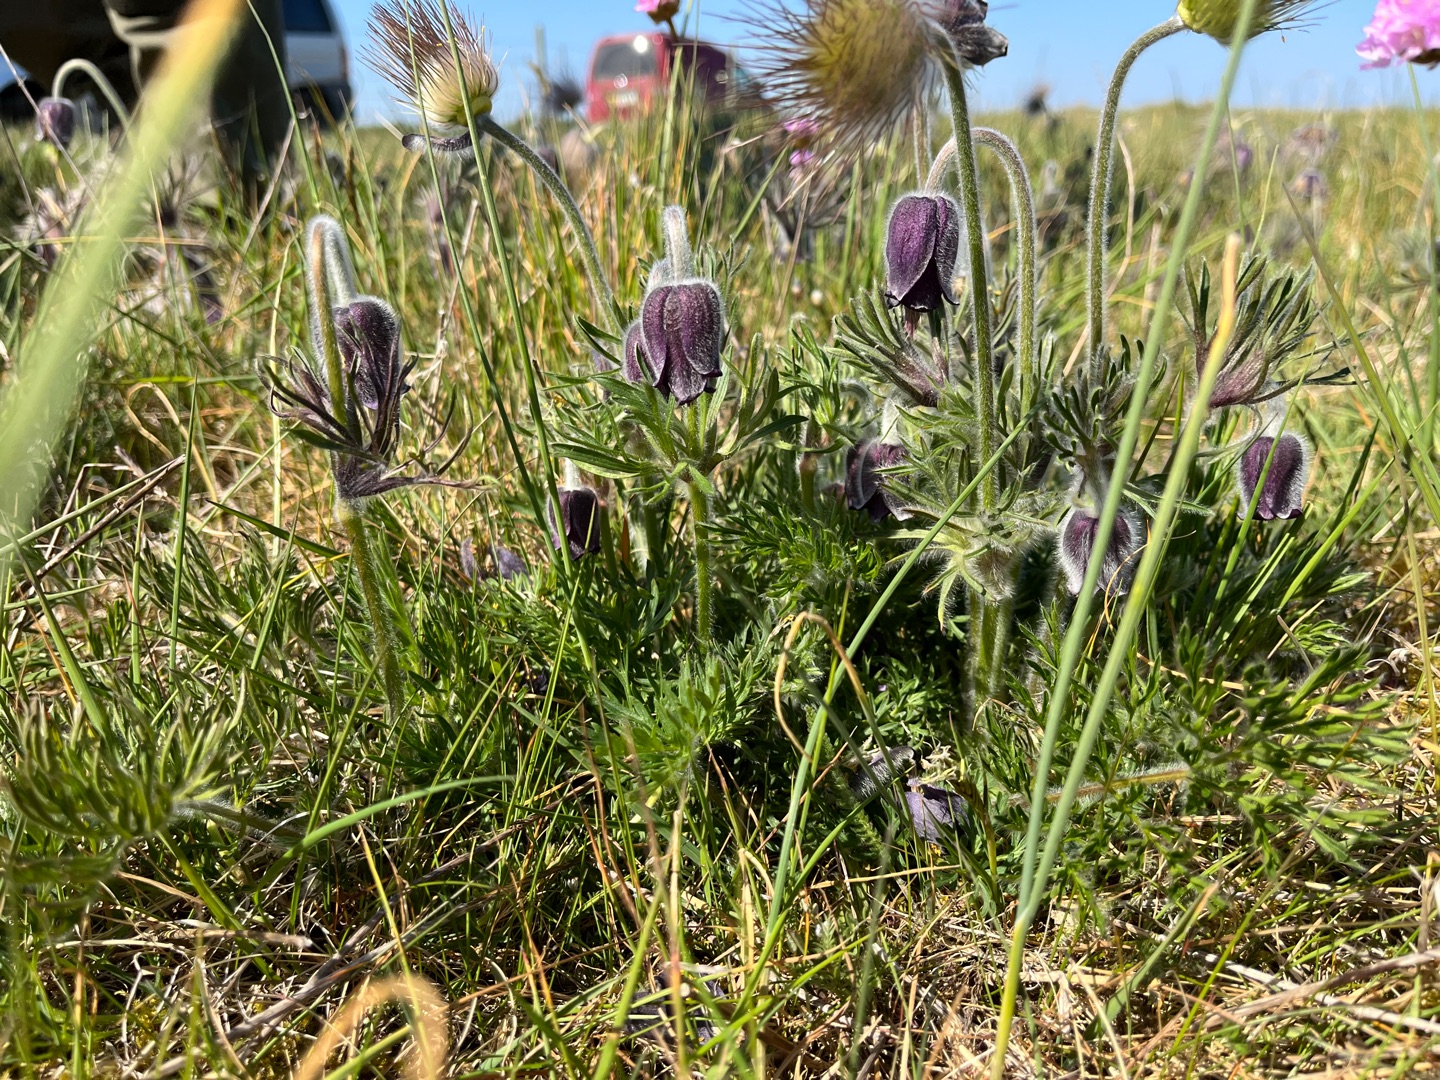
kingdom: Plantae
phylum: Tracheophyta
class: Magnoliopsida
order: Ranunculales
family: Ranunculaceae
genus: Pulsatilla
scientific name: Pulsatilla pratensis
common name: Nikkende kobjælde
